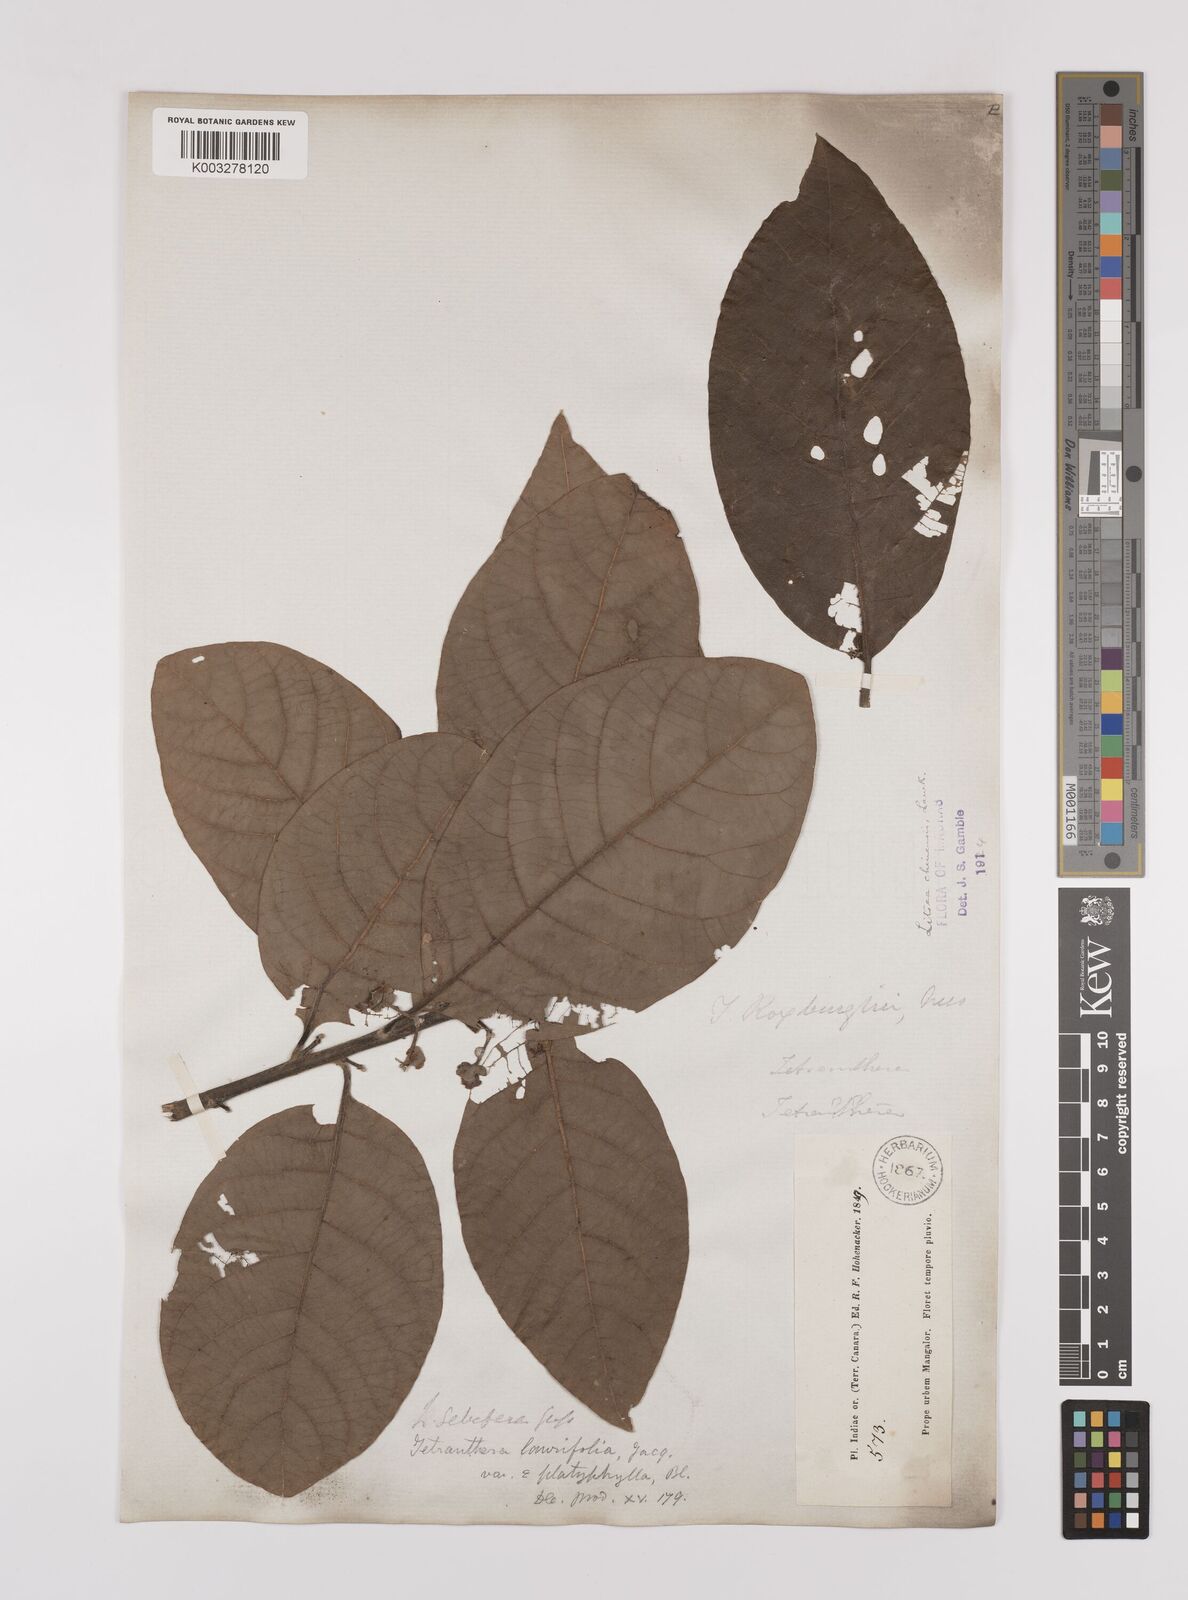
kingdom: Plantae
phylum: Tracheophyta
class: Magnoliopsida
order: Laurales
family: Lauraceae
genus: Litsea
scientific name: Litsea
